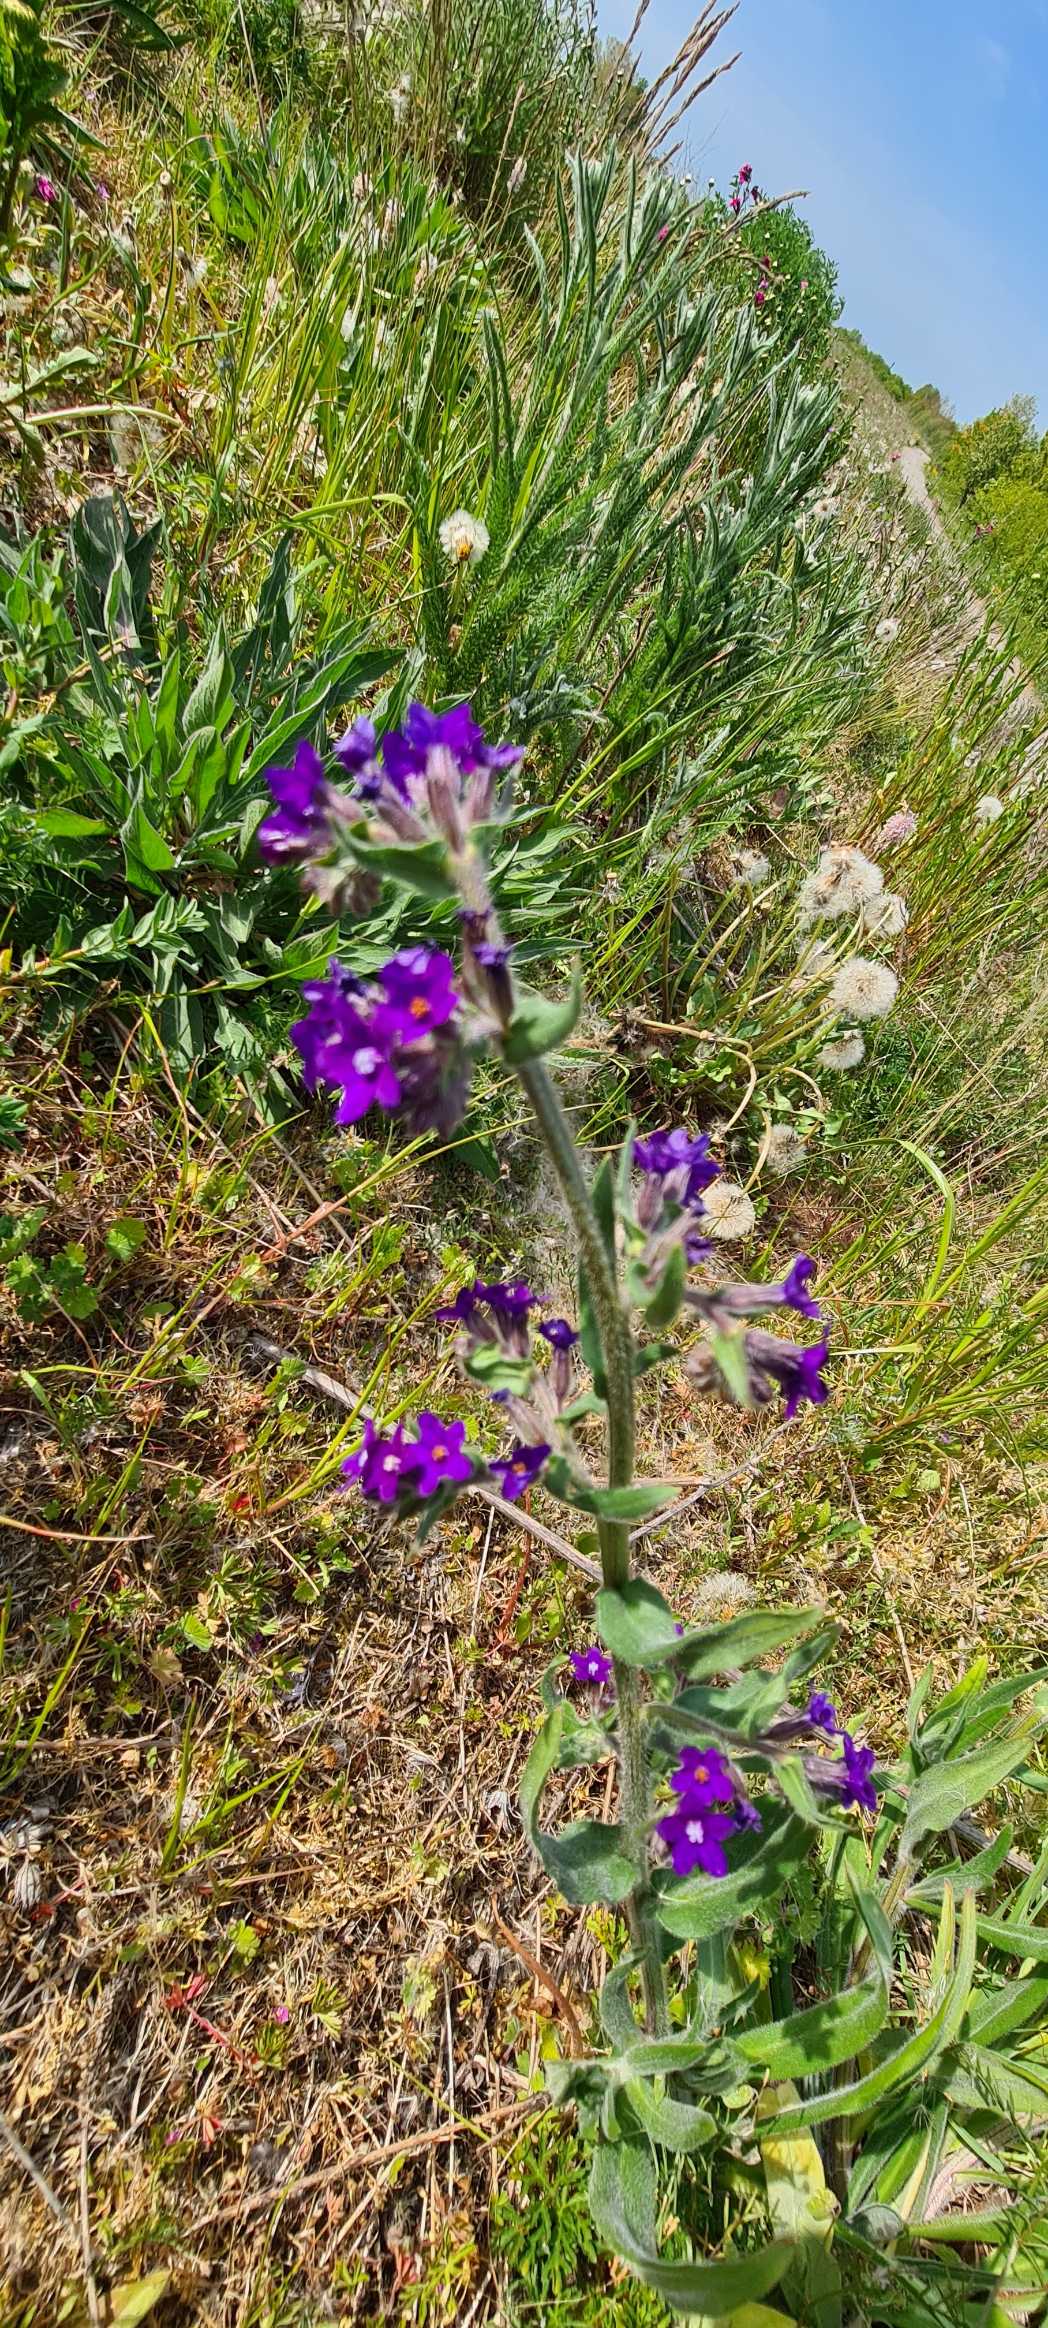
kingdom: Plantae
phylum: Tracheophyta
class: Magnoliopsida
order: Boraginales
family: Boraginaceae
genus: Anchusa
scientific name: Anchusa officinalis
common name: Læge-oksetunge
